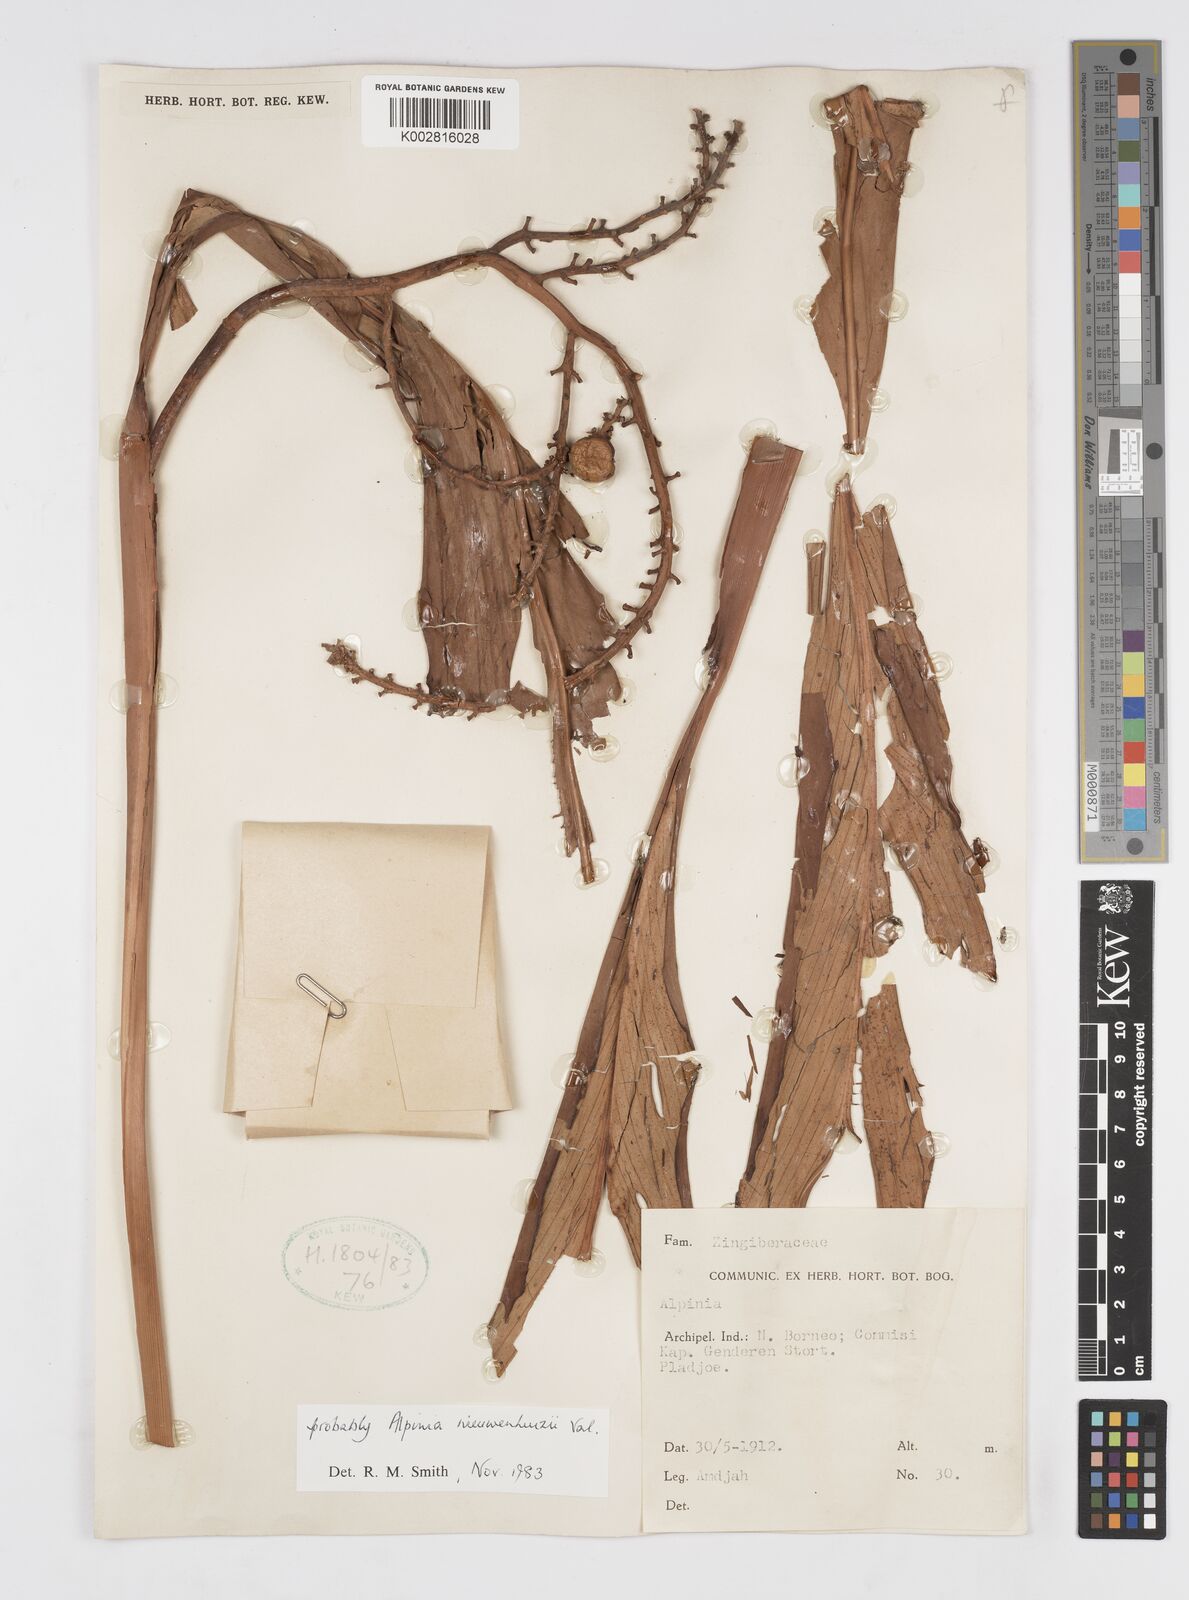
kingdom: Plantae
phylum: Tracheophyta
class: Liliopsida
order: Zingiberales
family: Zingiberaceae
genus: Alpinia
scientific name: Alpinia nieuwenhuizii
